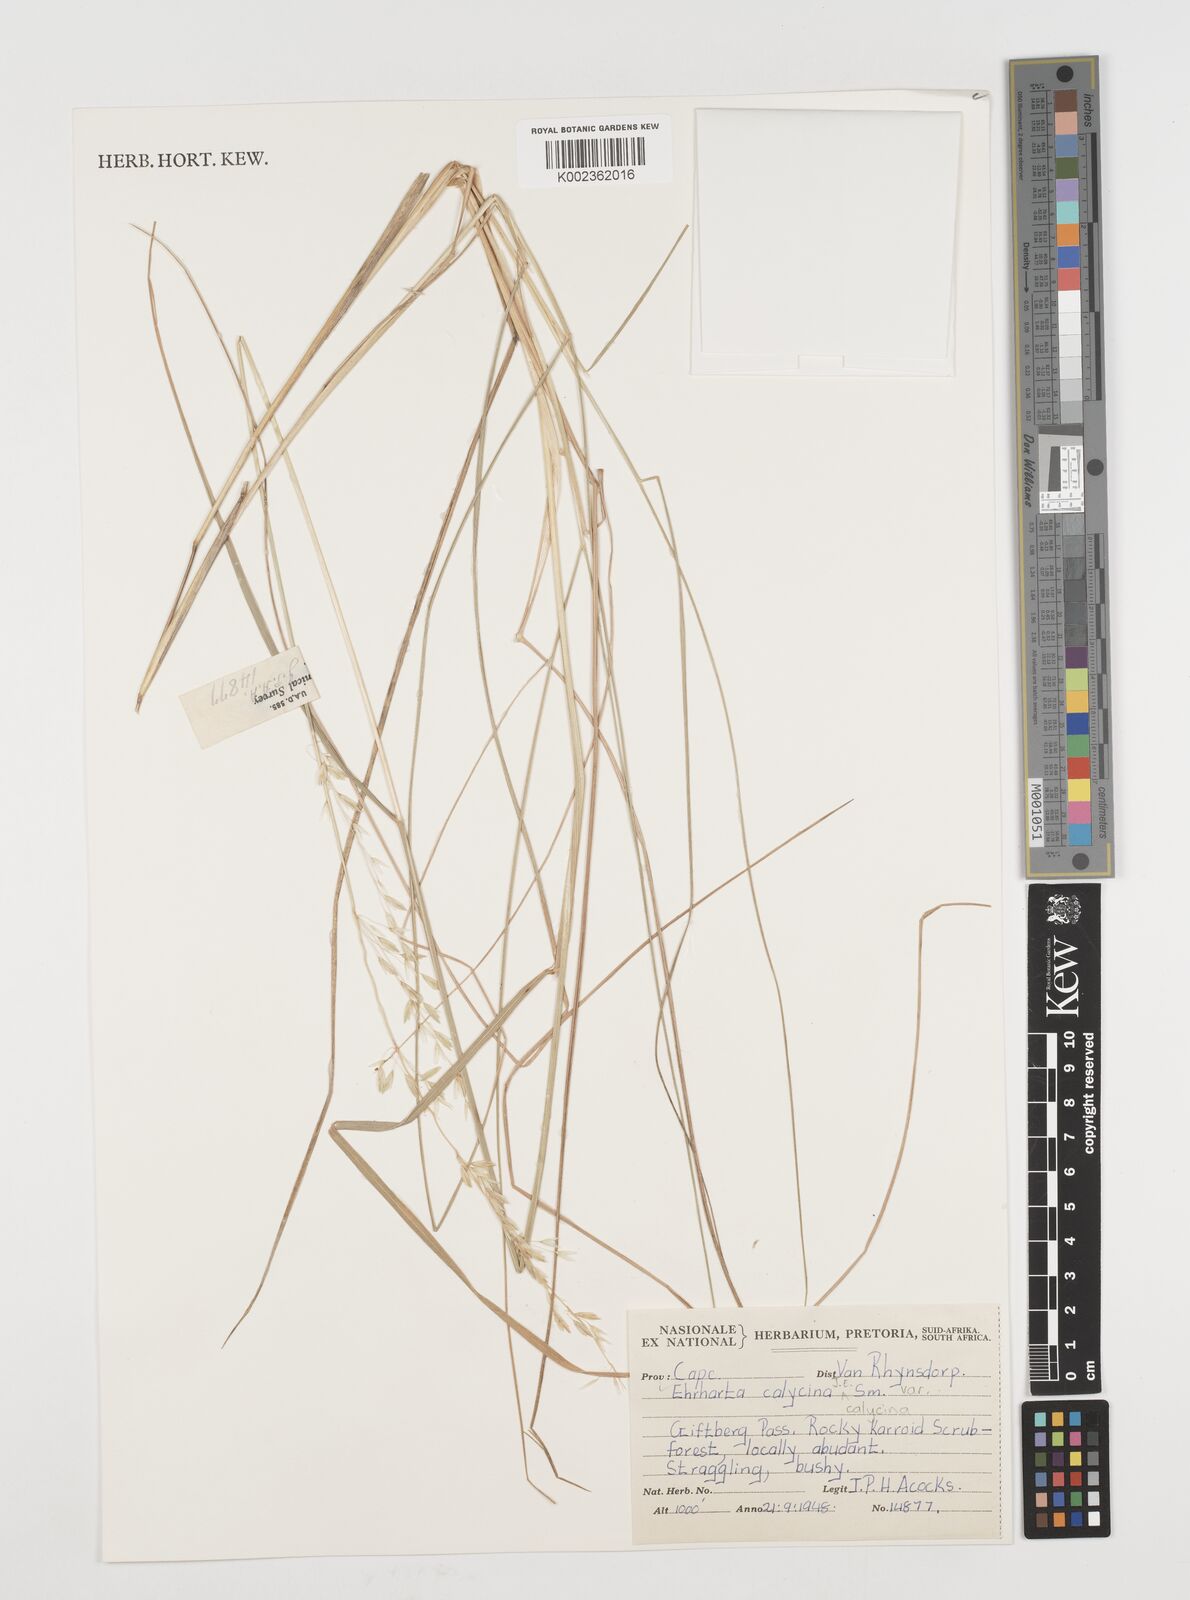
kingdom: Plantae
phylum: Tracheophyta
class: Liliopsida
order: Poales
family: Poaceae
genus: Ehrharta
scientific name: Ehrharta calycina
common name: Perennial veldtgrass
